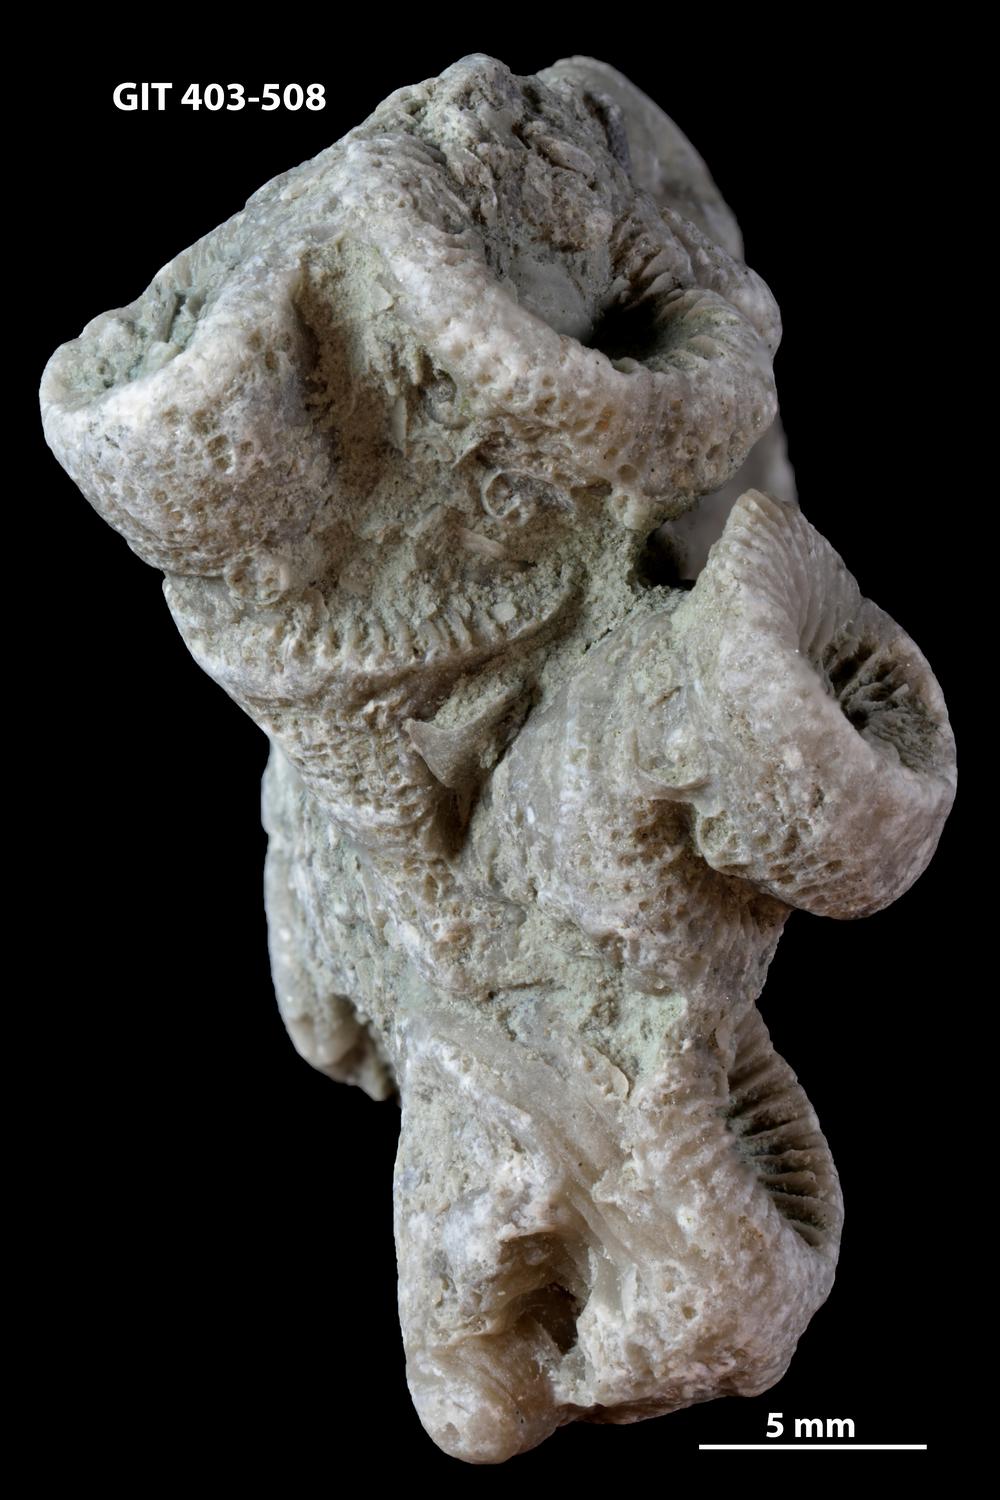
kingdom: Animalia
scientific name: Animalia
